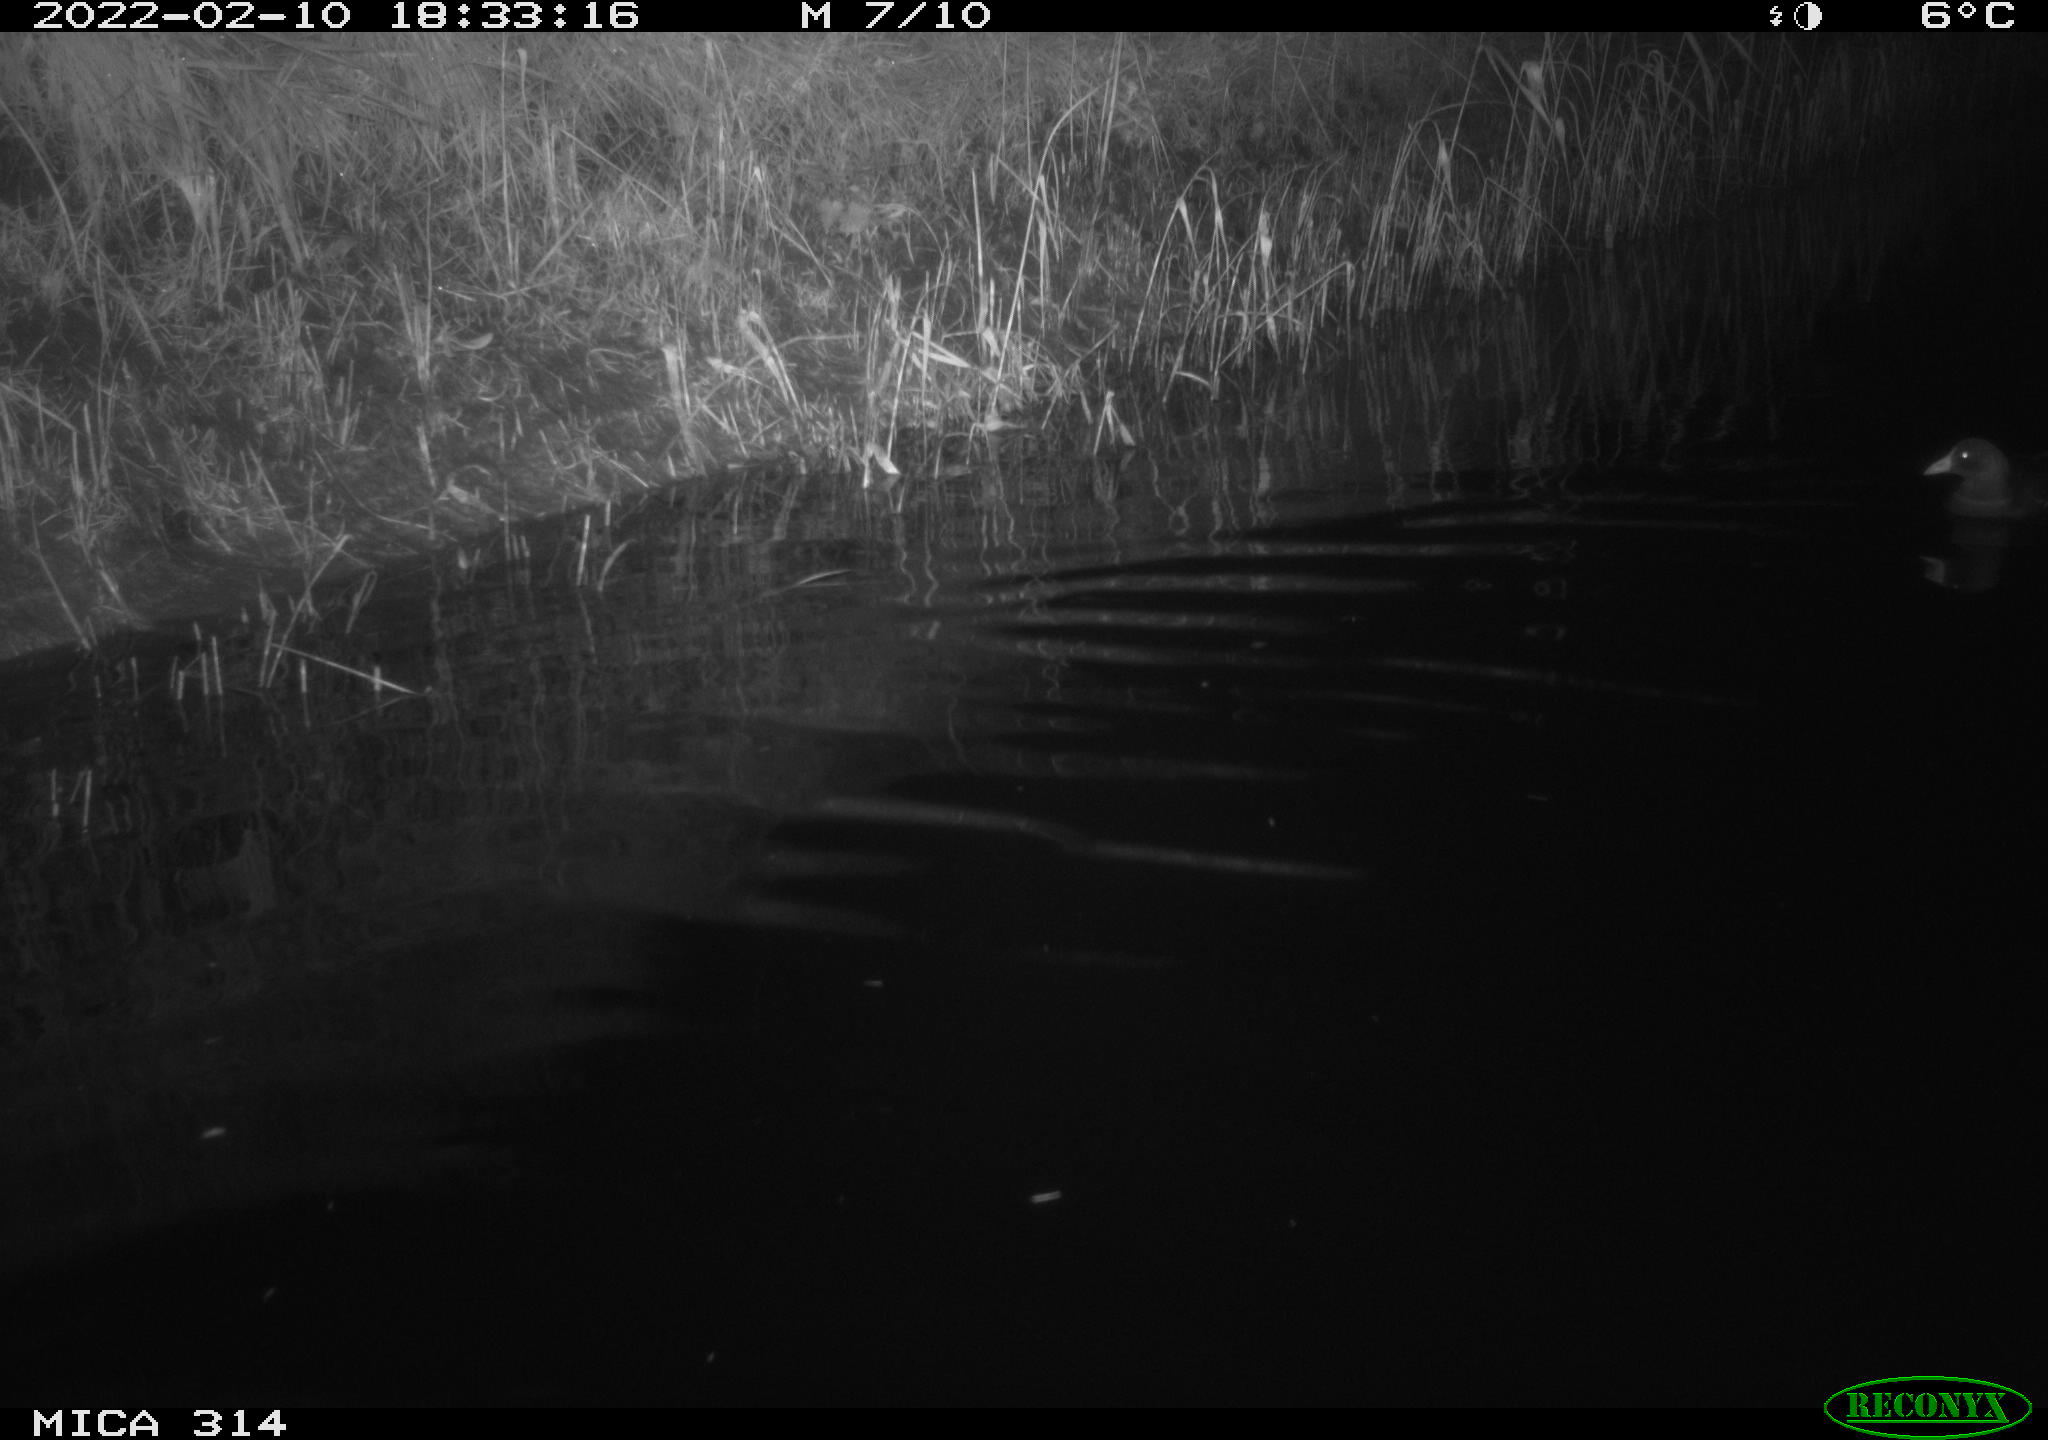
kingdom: Animalia
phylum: Chordata
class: Aves
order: Gruiformes
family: Rallidae
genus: Gallinula
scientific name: Gallinula chloropus
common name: Common moorhen
